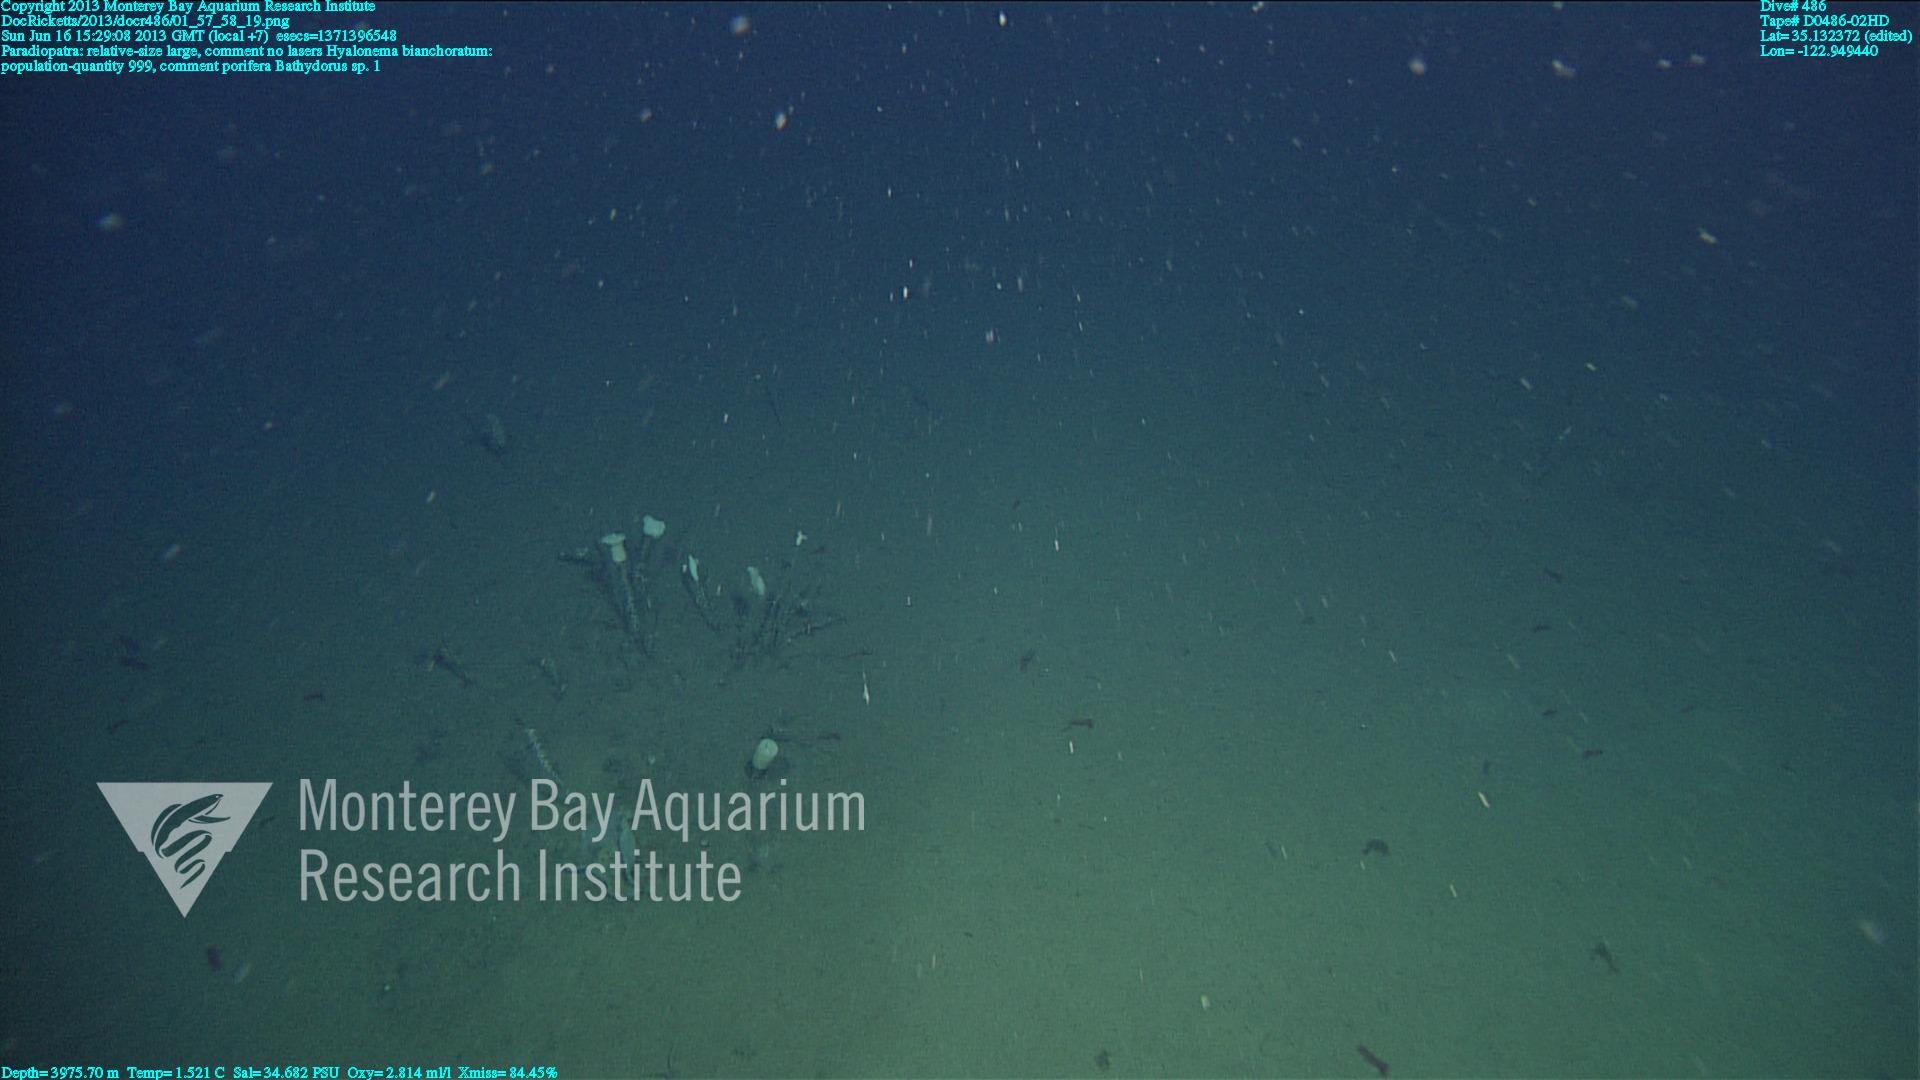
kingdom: Animalia
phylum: Porifera
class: Hexactinellida
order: Lyssacinosida
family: Rossellidae
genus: Bathydorus
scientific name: Bathydorus
